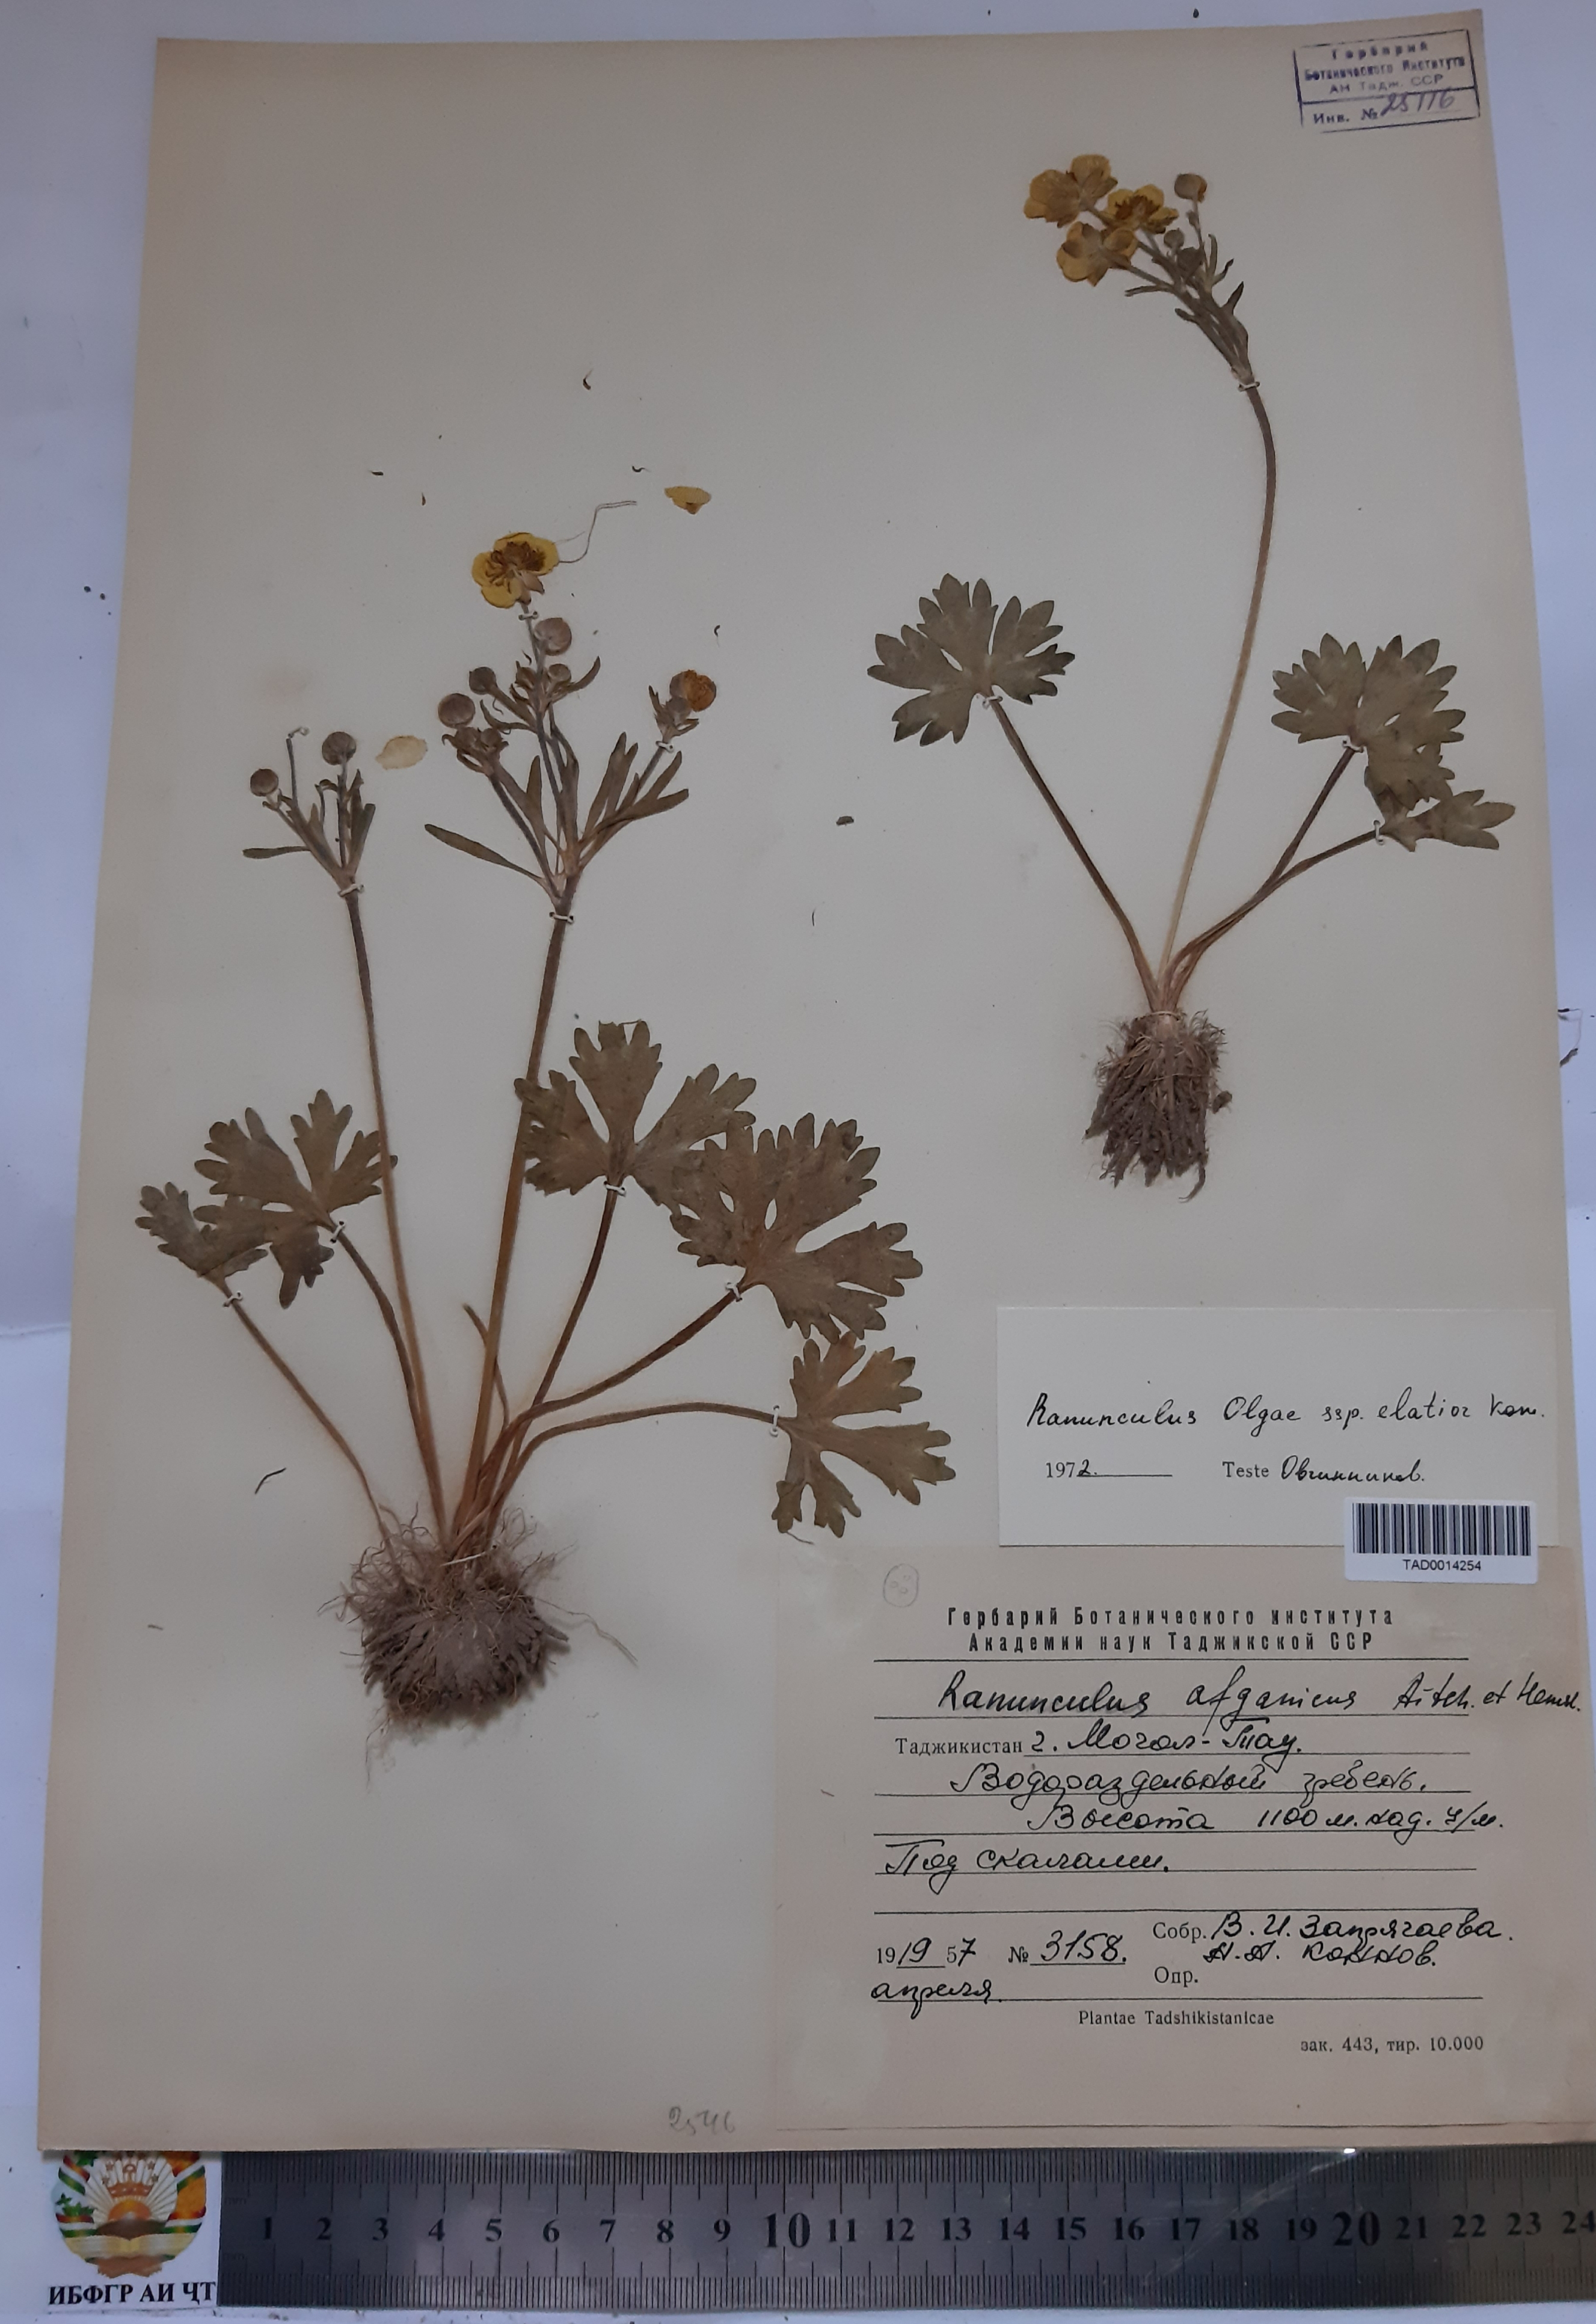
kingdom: Plantae
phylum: Tracheophyta
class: Magnoliopsida
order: Ranunculales
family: Ranunculaceae
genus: Ranunculus
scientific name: Ranunculus afghanicus
